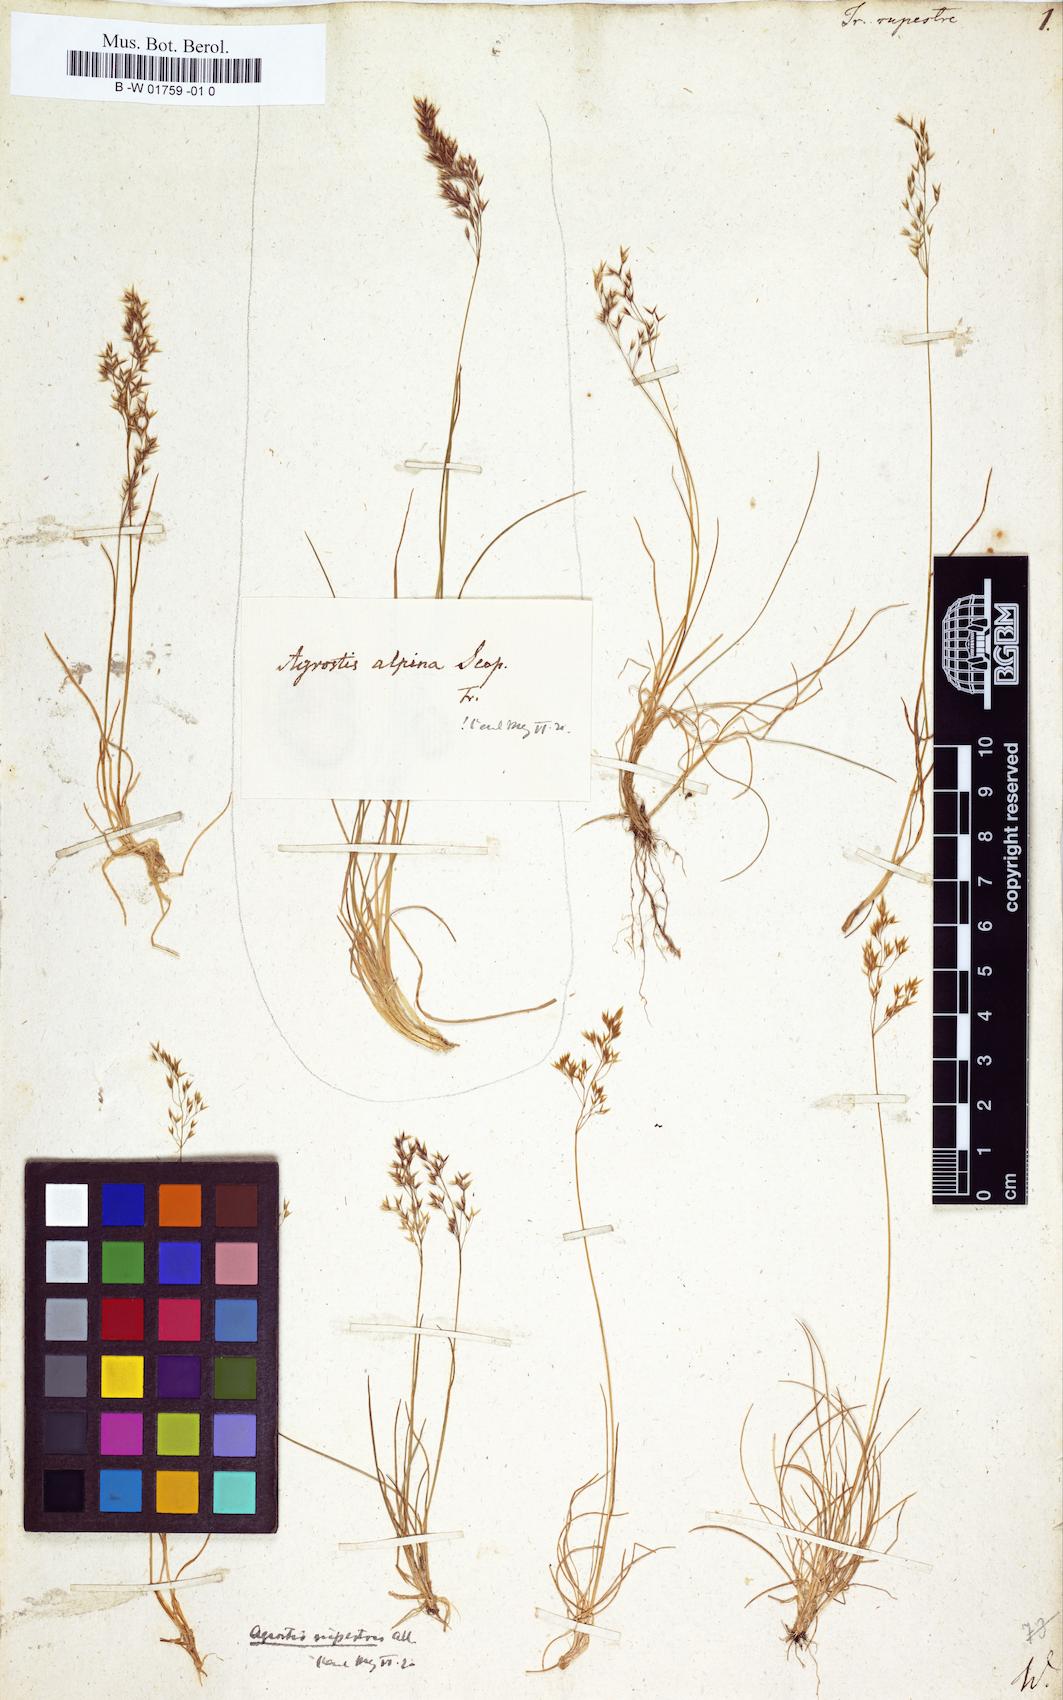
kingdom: Plantae
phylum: Tracheophyta
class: Liliopsida
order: Poales
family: Poaceae
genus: Alpagrostis
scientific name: Alpagrostis alpina
